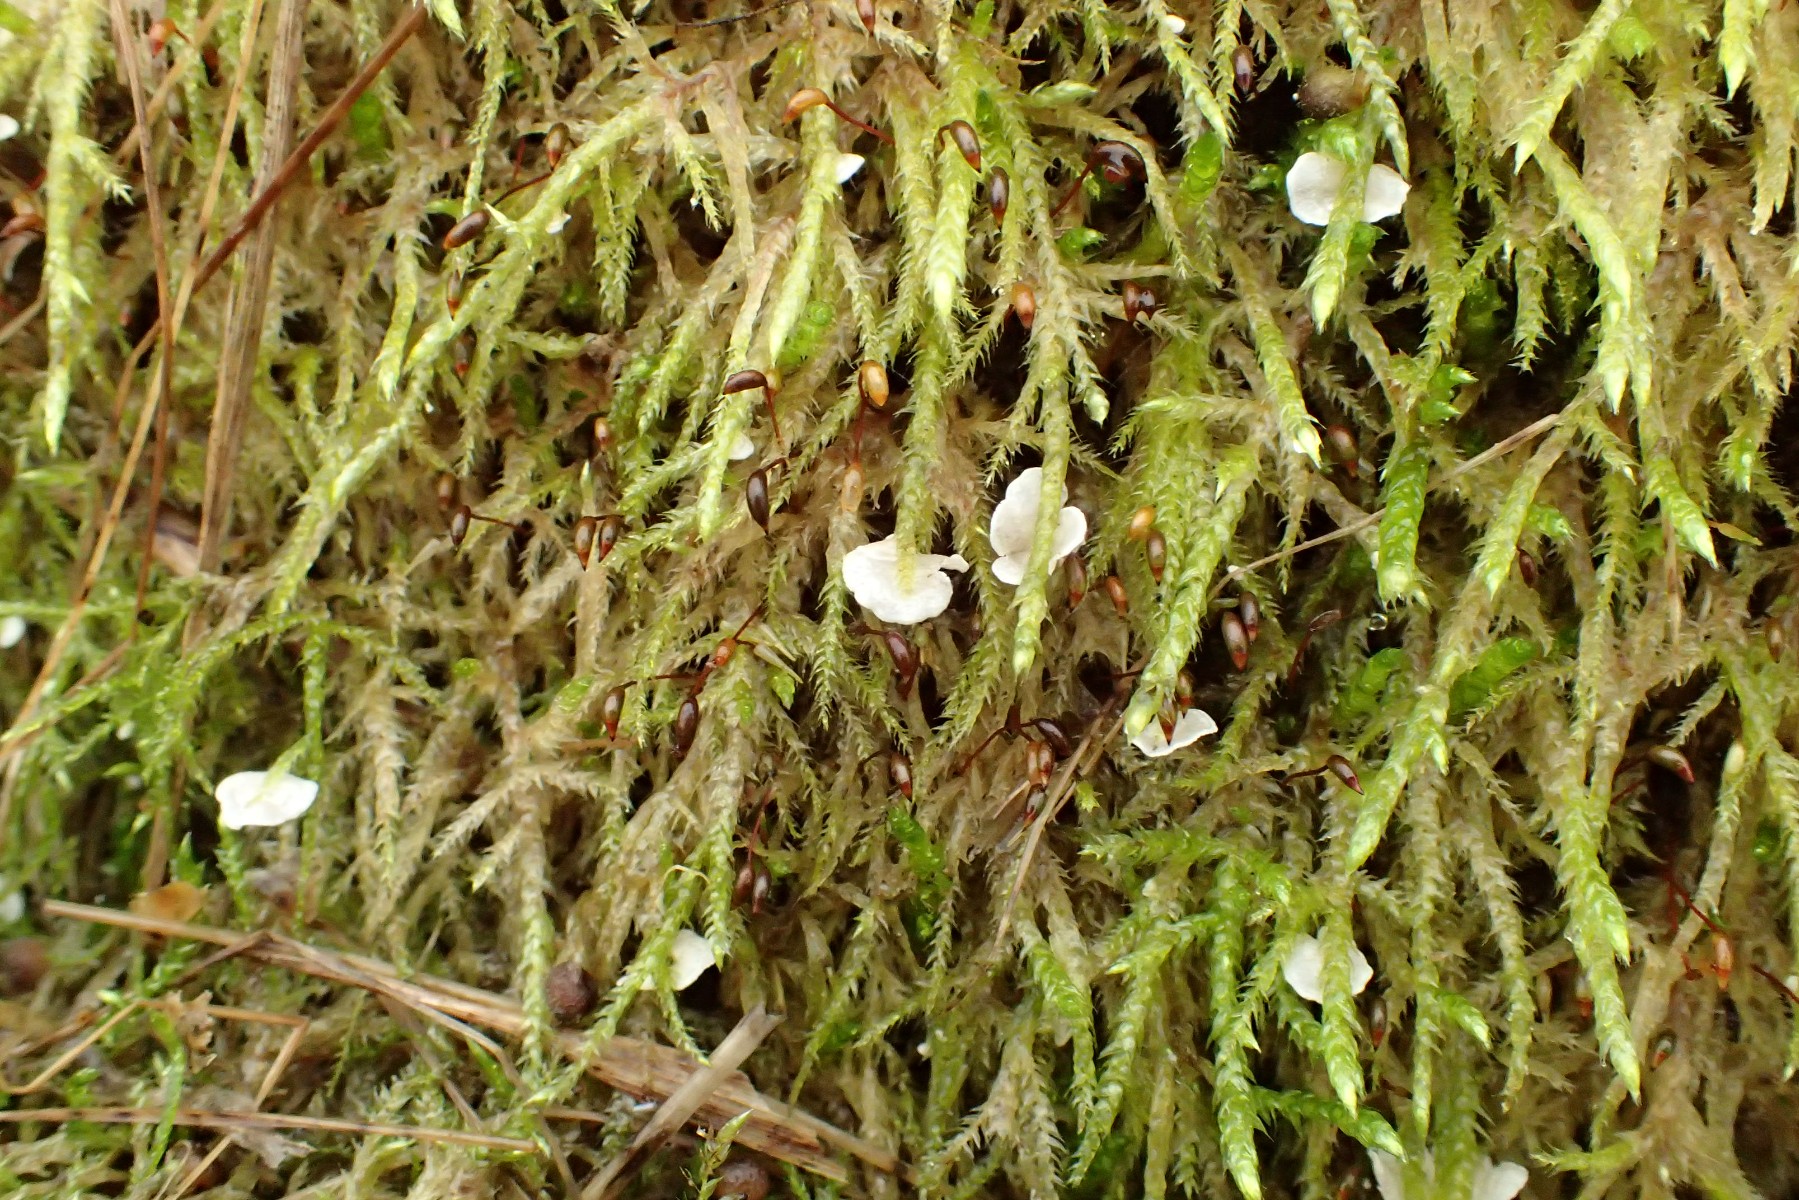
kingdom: Fungi
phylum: Basidiomycota
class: Agaricomycetes
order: Agaricales
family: Hygrophoraceae
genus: Arrhenia
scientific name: Arrhenia retiruga
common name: lille fontænehat
